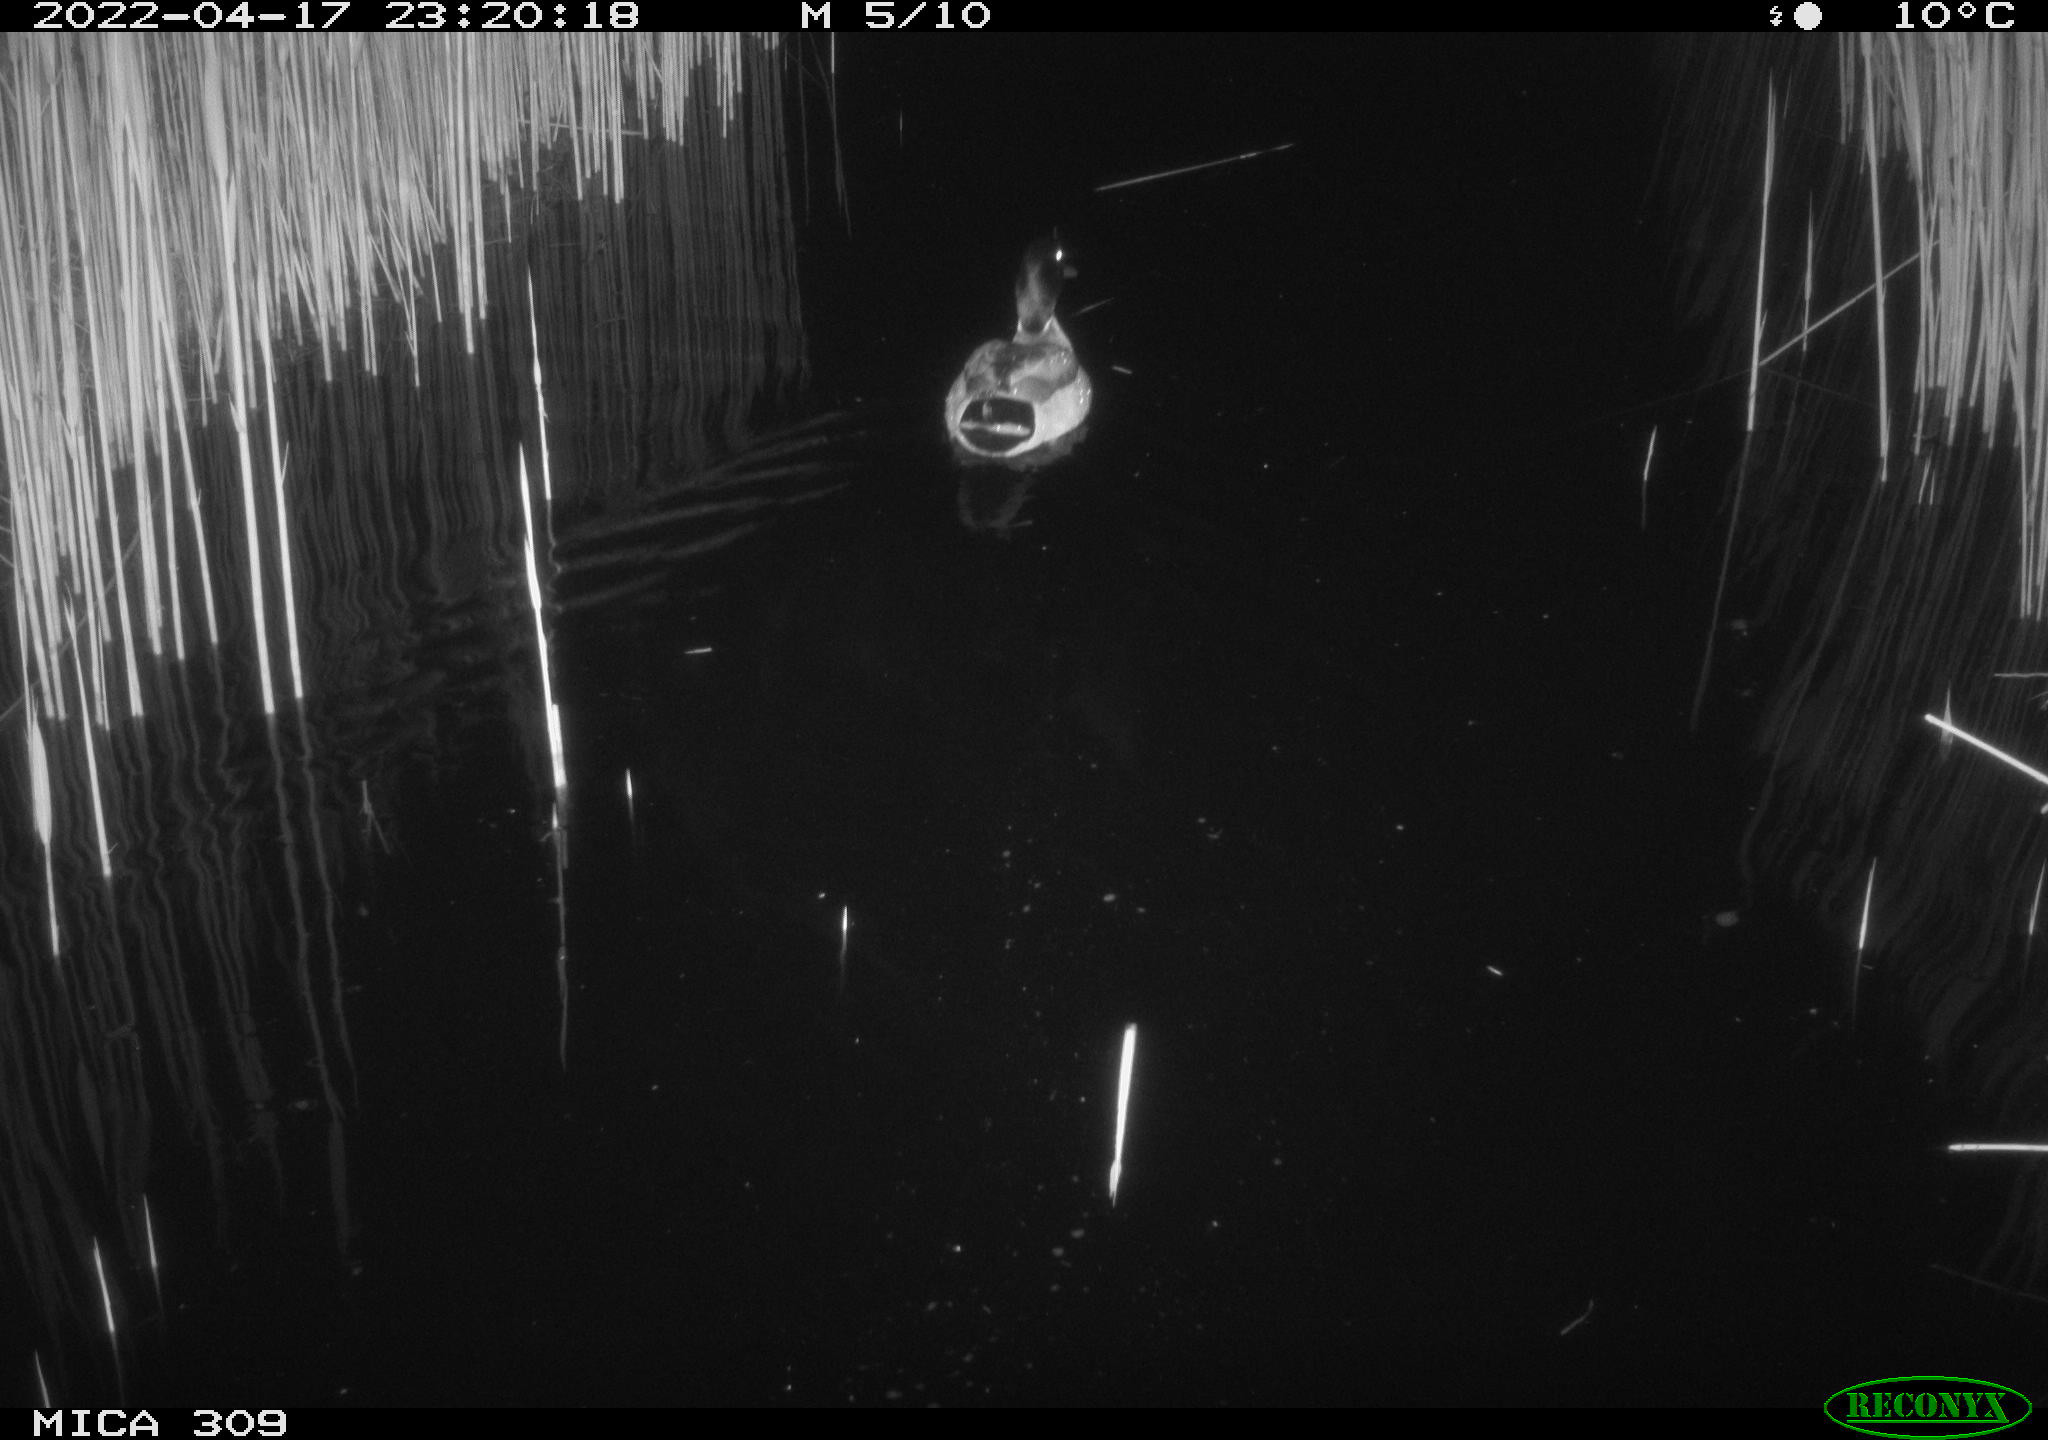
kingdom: Animalia
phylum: Chordata
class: Aves
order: Gruiformes
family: Rallidae
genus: Fulica
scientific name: Fulica atra
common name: Eurasian coot
